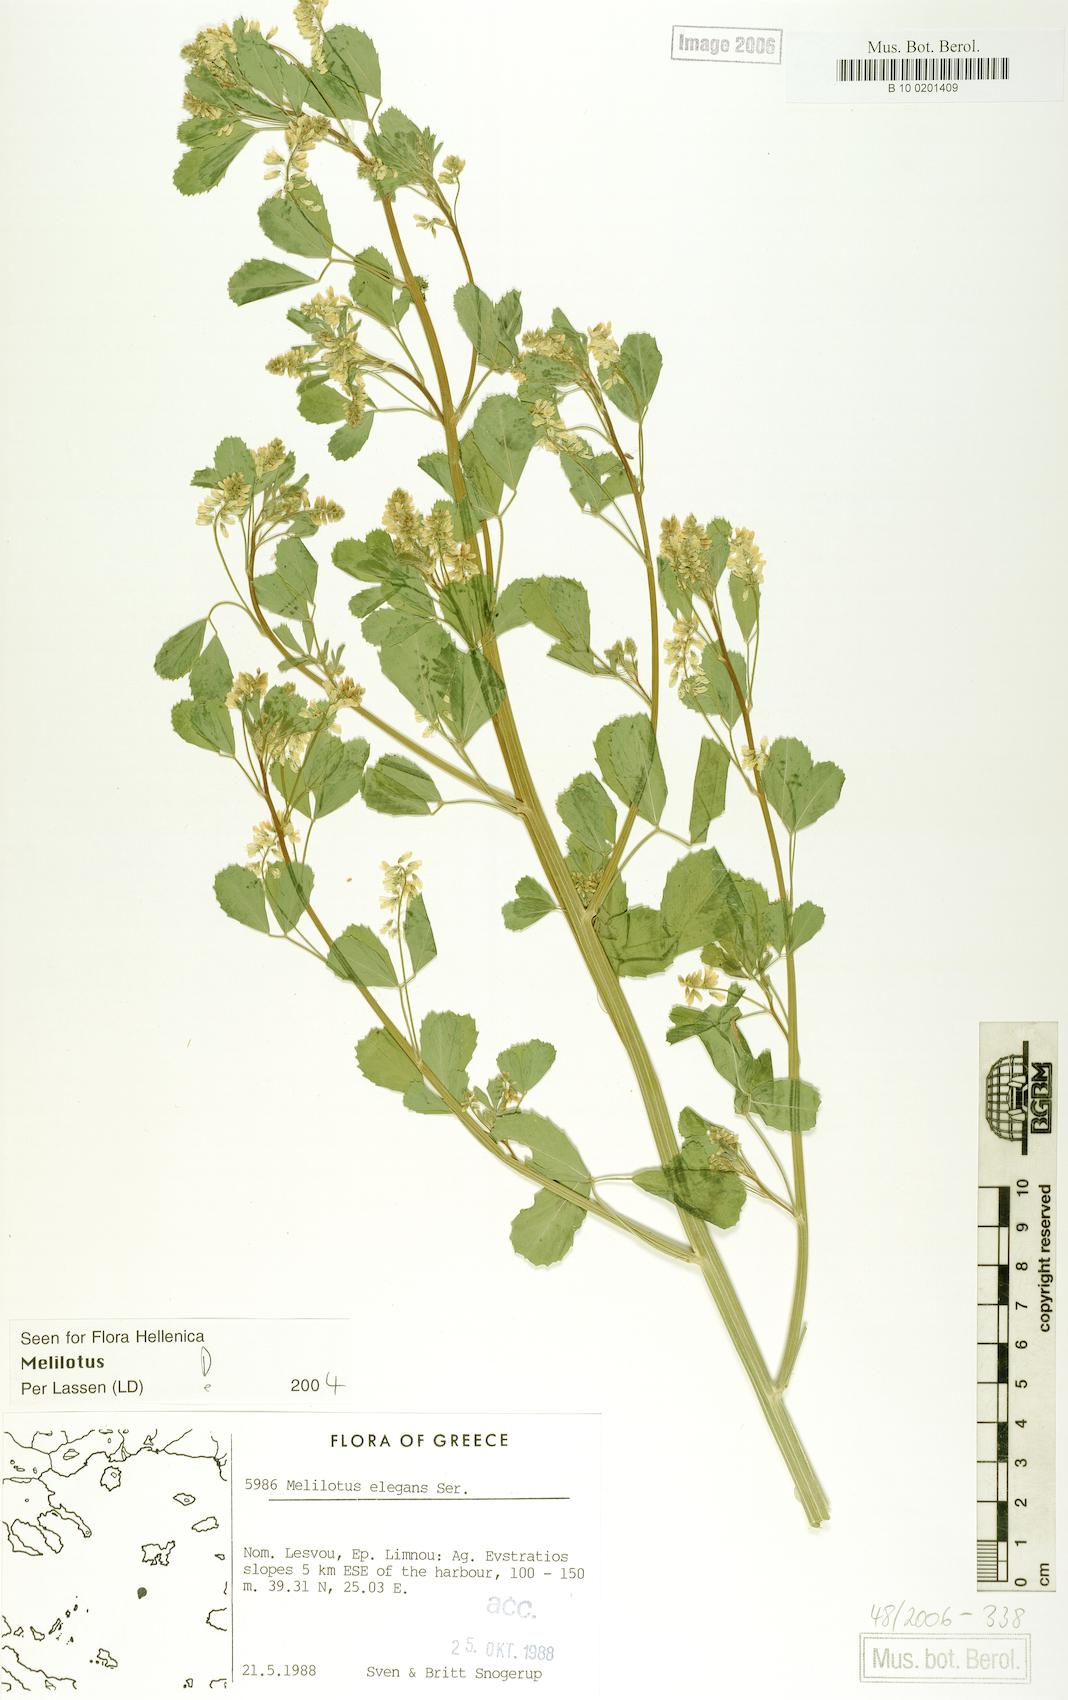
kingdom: Plantae
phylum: Tracheophyta
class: Magnoliopsida
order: Fabales
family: Fabaceae
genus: Melilotus
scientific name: Melilotus elegans
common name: Elegant sweet-clover
